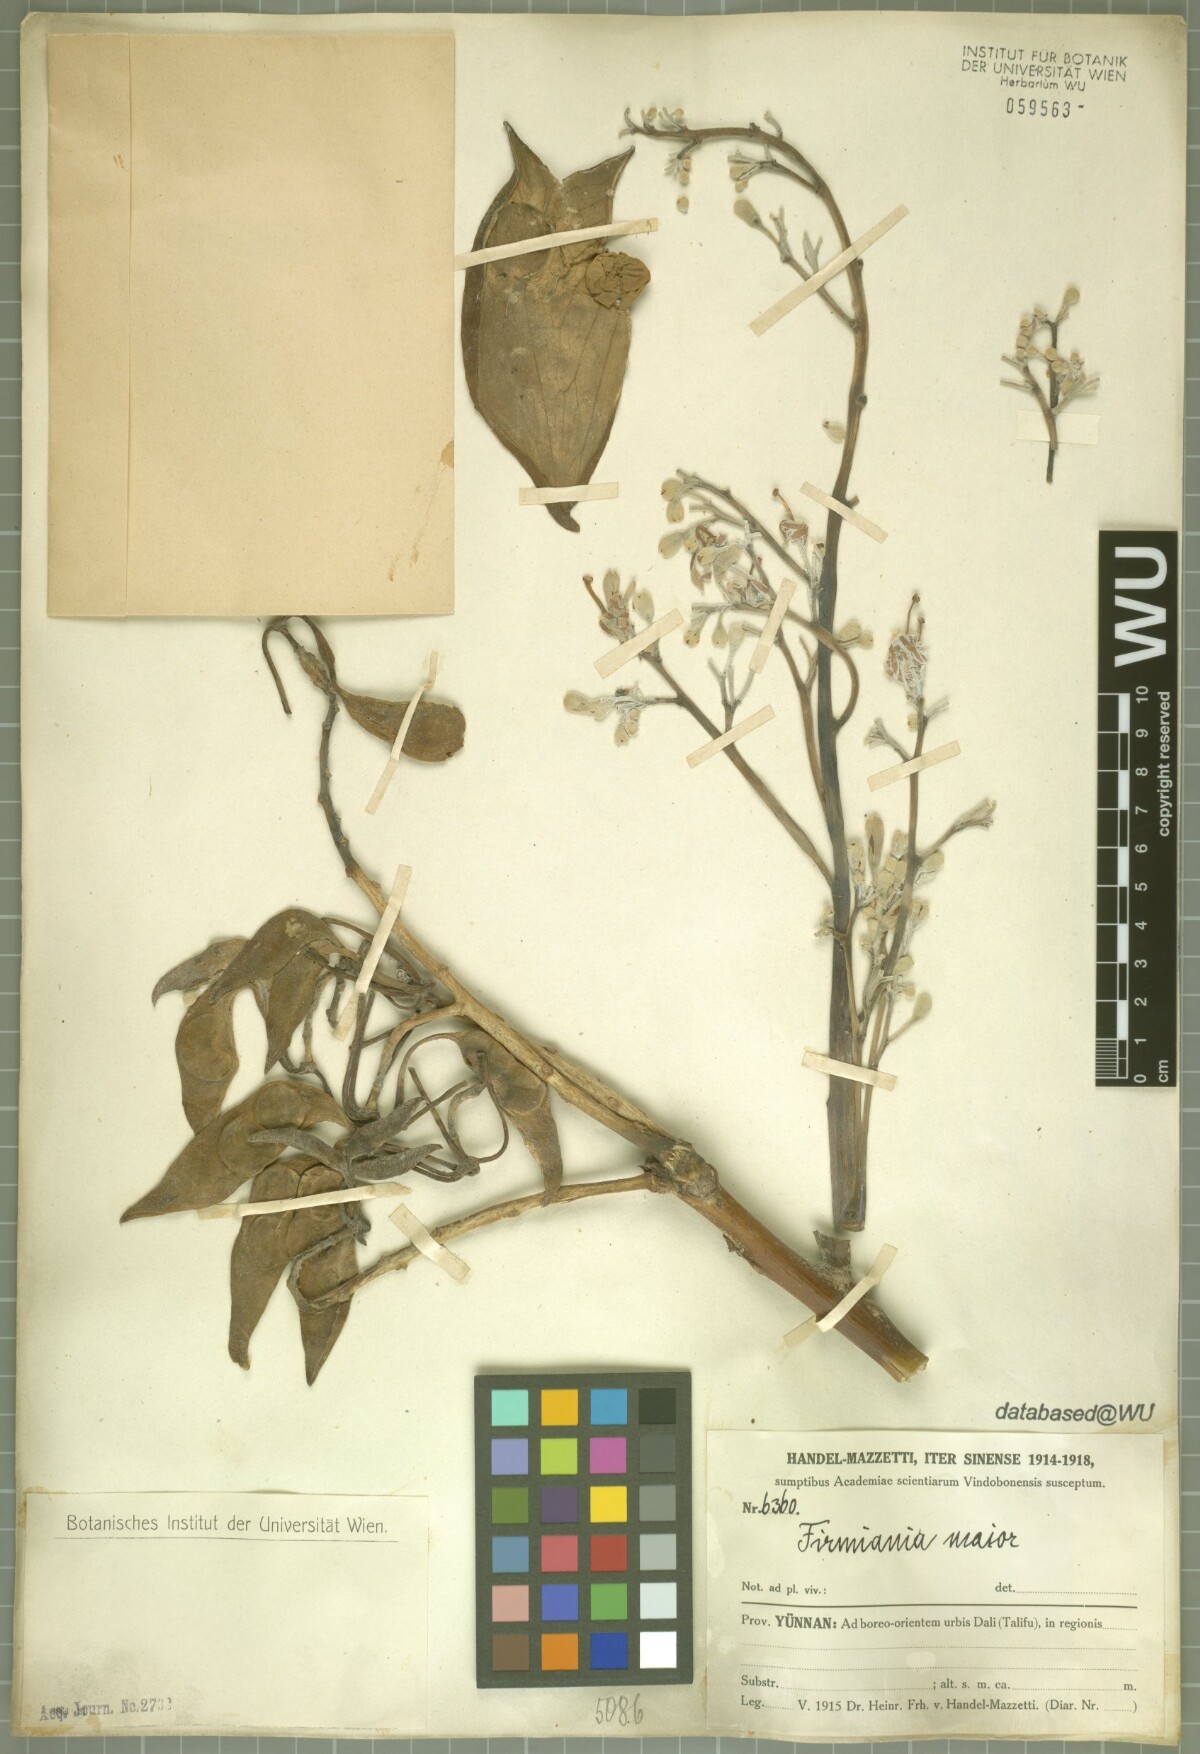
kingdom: Plantae
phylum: Tracheophyta
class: Magnoliopsida
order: Malvales
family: Malvaceae
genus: Firmiana
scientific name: Firmiana major
